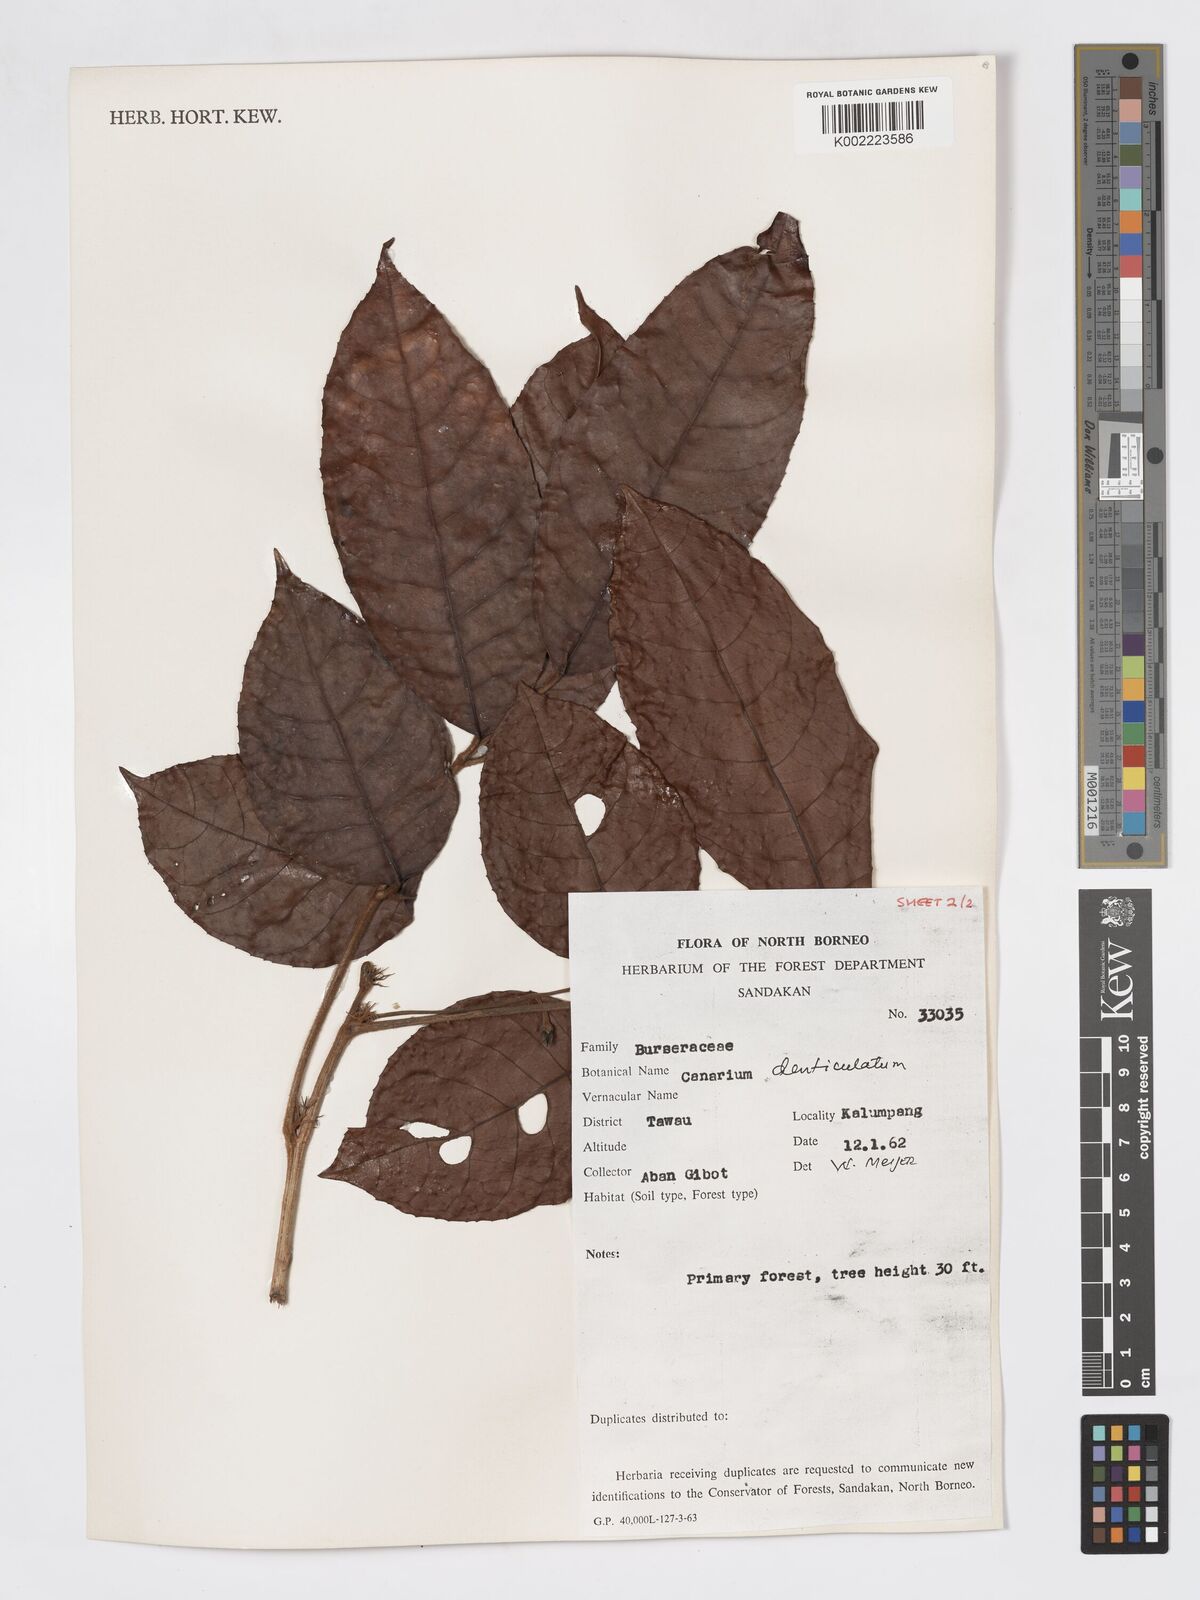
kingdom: Plantae
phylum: Tracheophyta
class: Magnoliopsida
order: Sapindales
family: Burseraceae
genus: Canarium
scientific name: Canarium denticulatum
